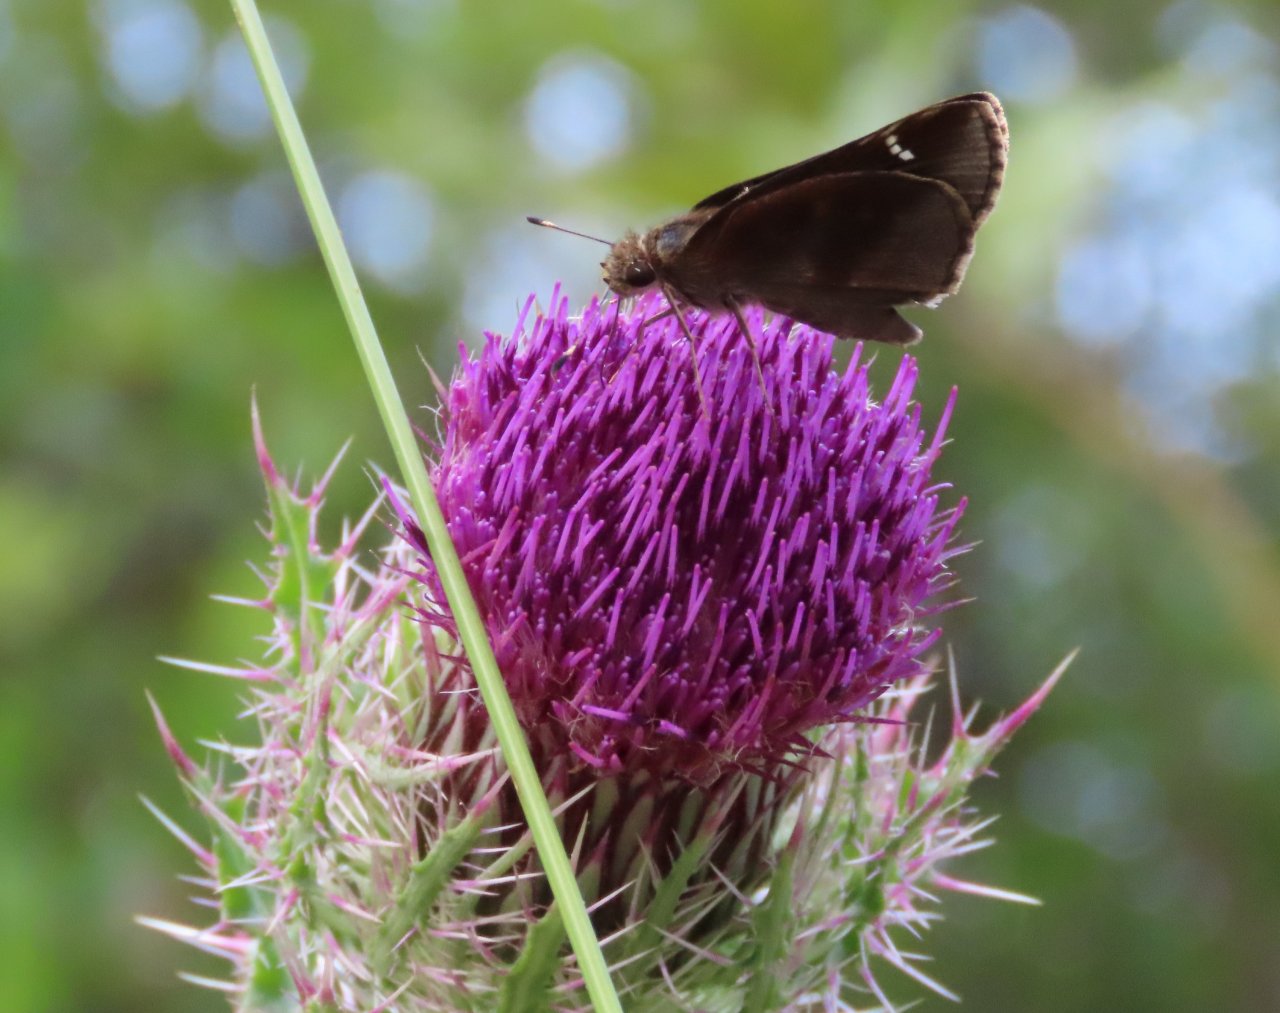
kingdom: Animalia
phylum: Arthropoda
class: Insecta
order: Lepidoptera
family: Hesperiidae
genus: Lerema
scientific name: Lerema accius
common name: Clouded Skipper
